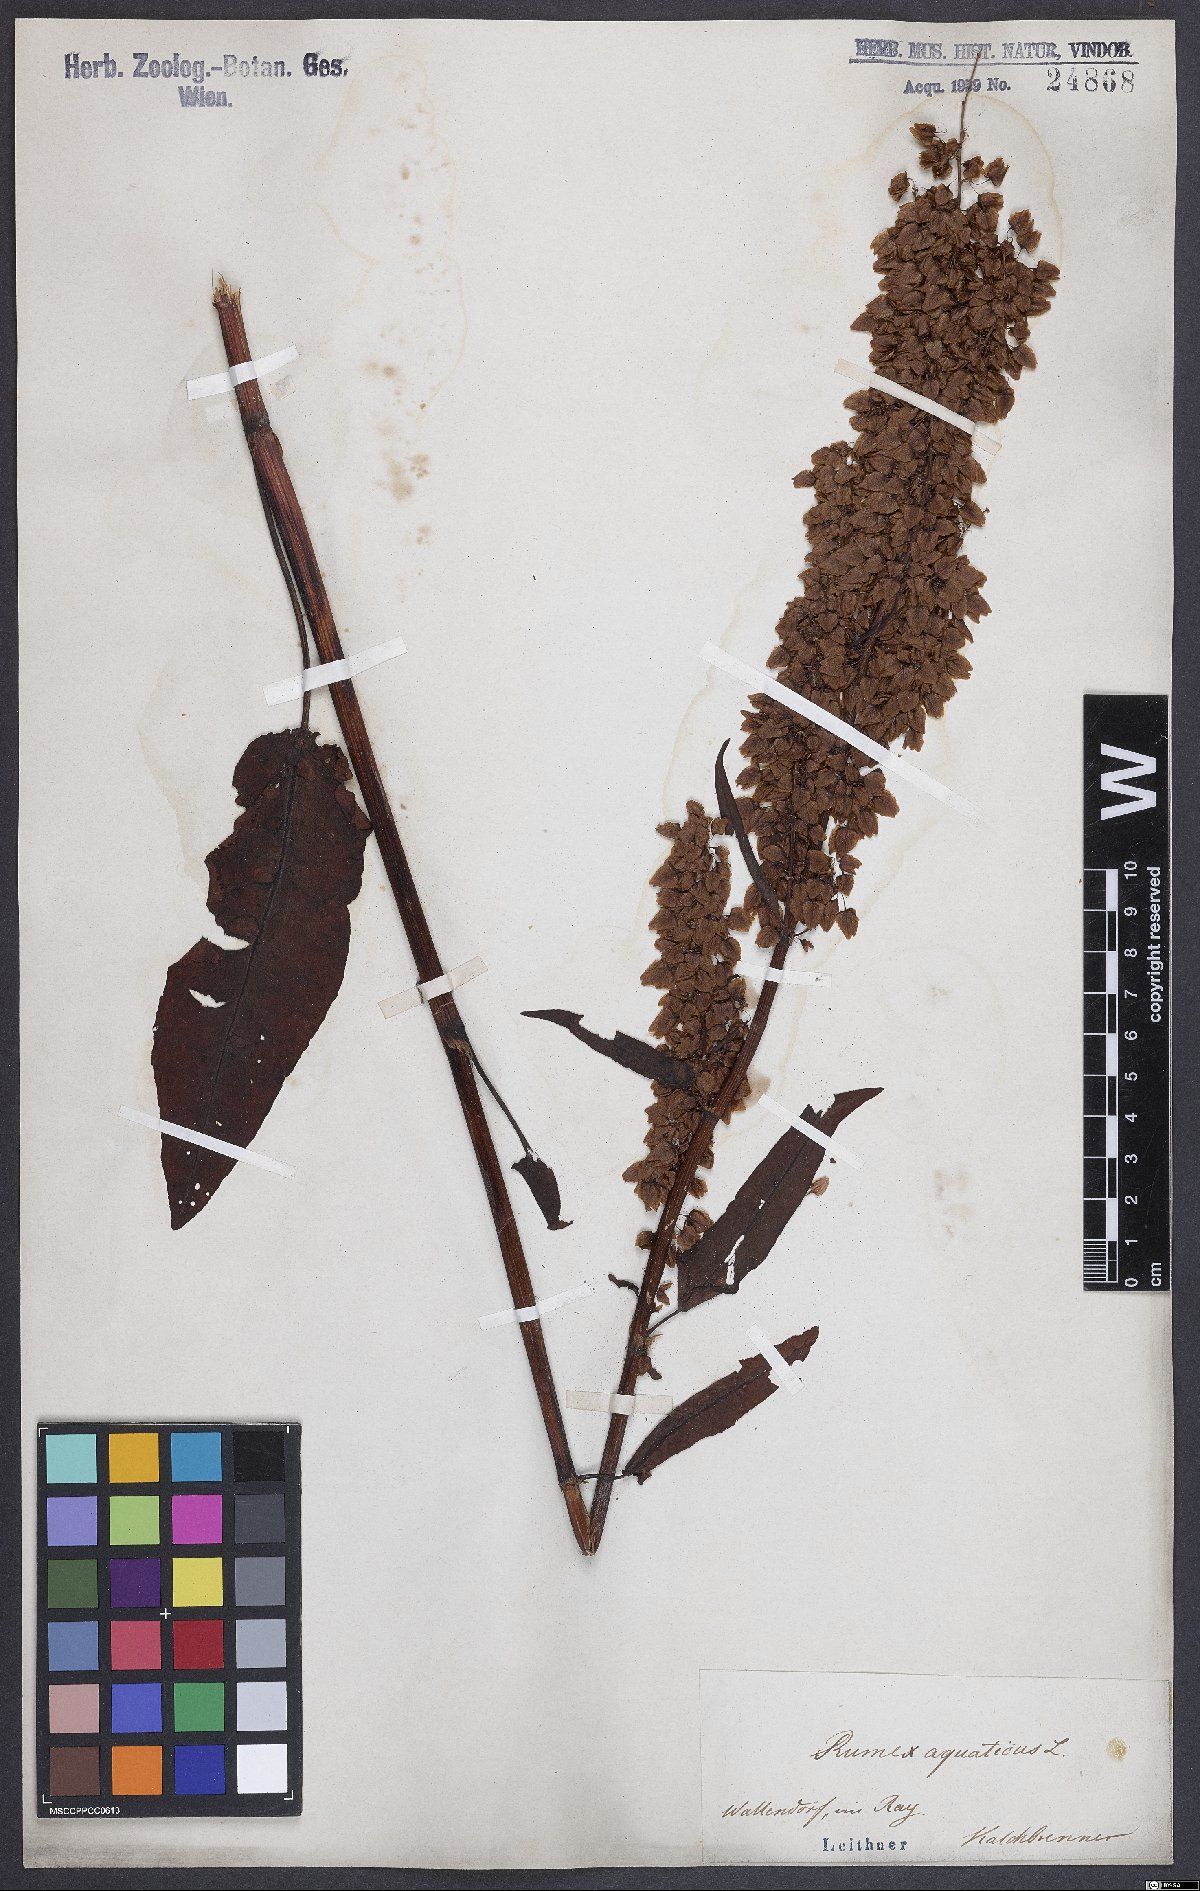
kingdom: Plantae
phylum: Tracheophyta
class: Magnoliopsida
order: Caryophyllales
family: Polygonaceae
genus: Rumex
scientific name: Rumex aquaticus
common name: Scottish dock
